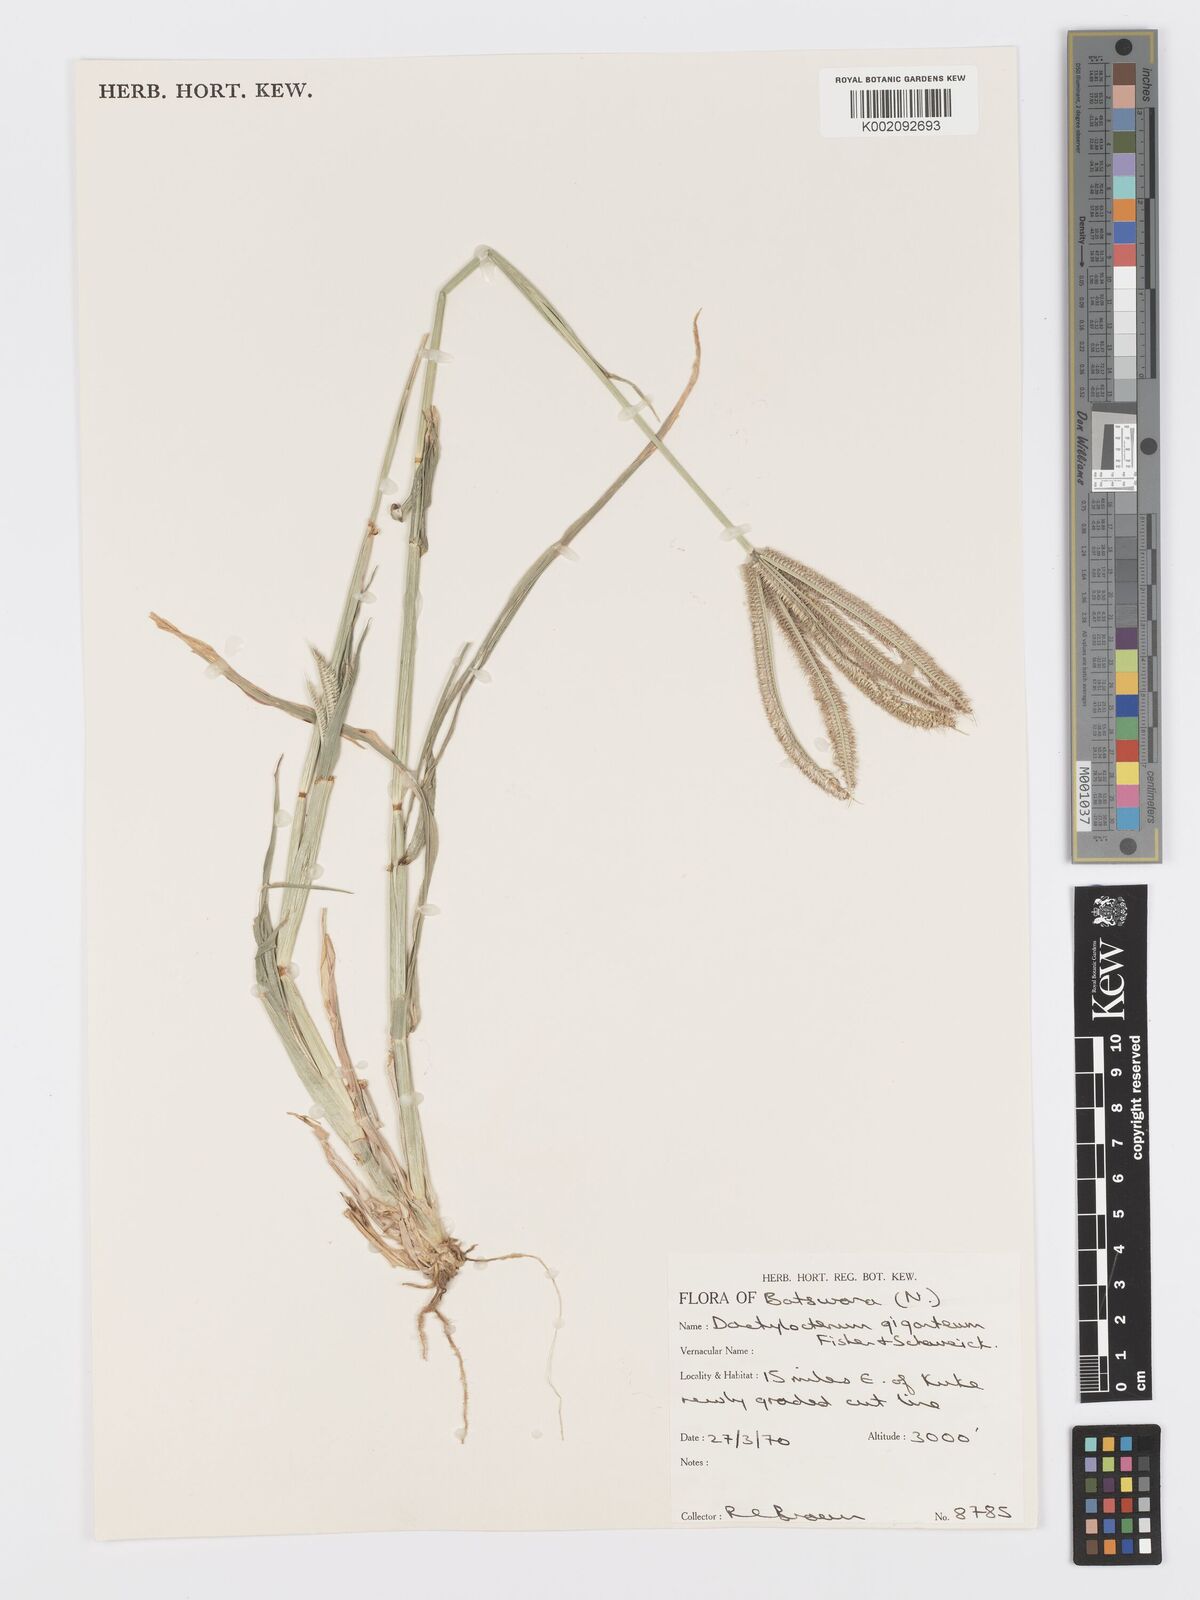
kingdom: Plantae
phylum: Tracheophyta
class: Liliopsida
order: Poales
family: Poaceae
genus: Dactyloctenium
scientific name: Dactyloctenium giganteum
